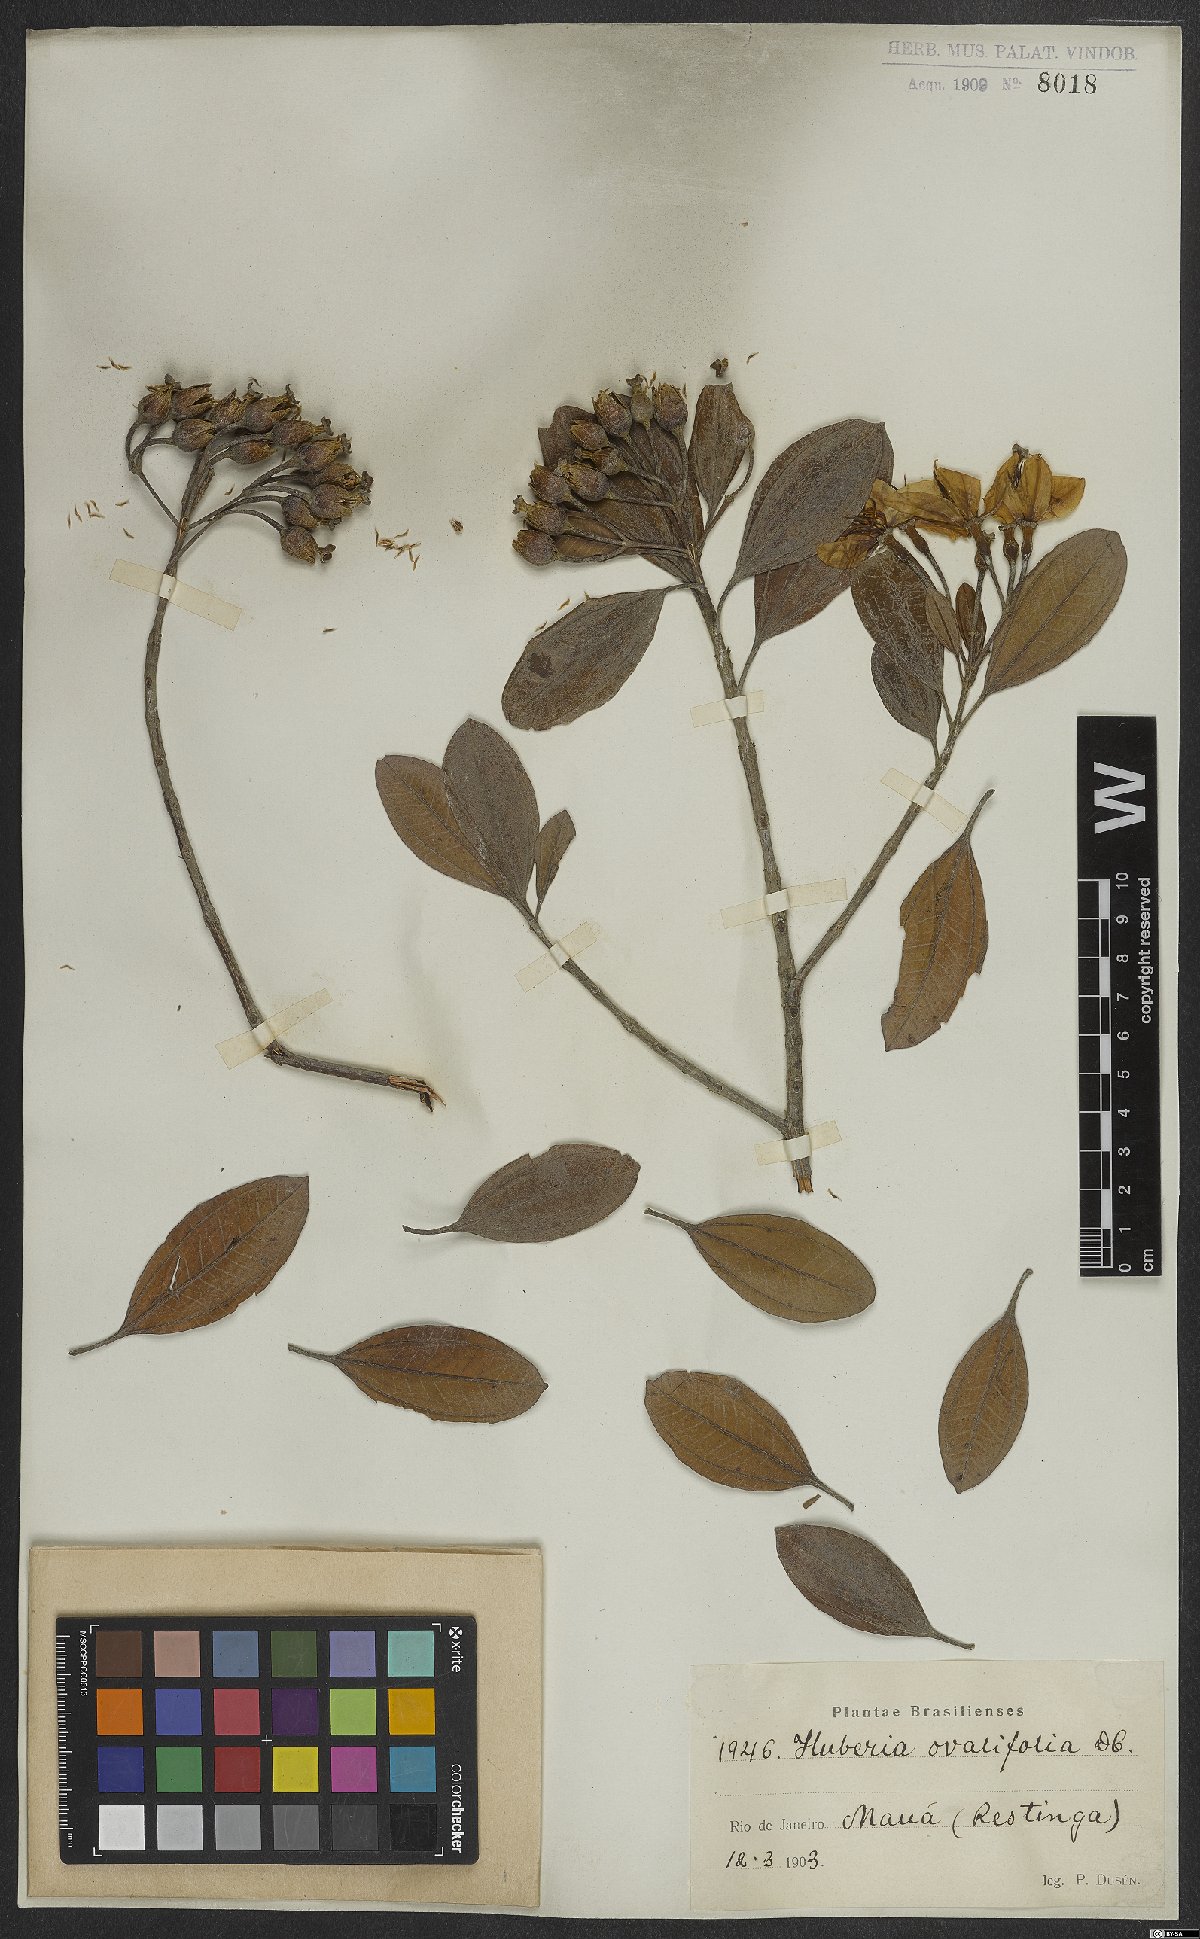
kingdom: Plantae
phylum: Tracheophyta
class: Magnoliopsida
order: Myrtales
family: Melastomataceae
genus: Huberia
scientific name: Huberia ovalifolia
